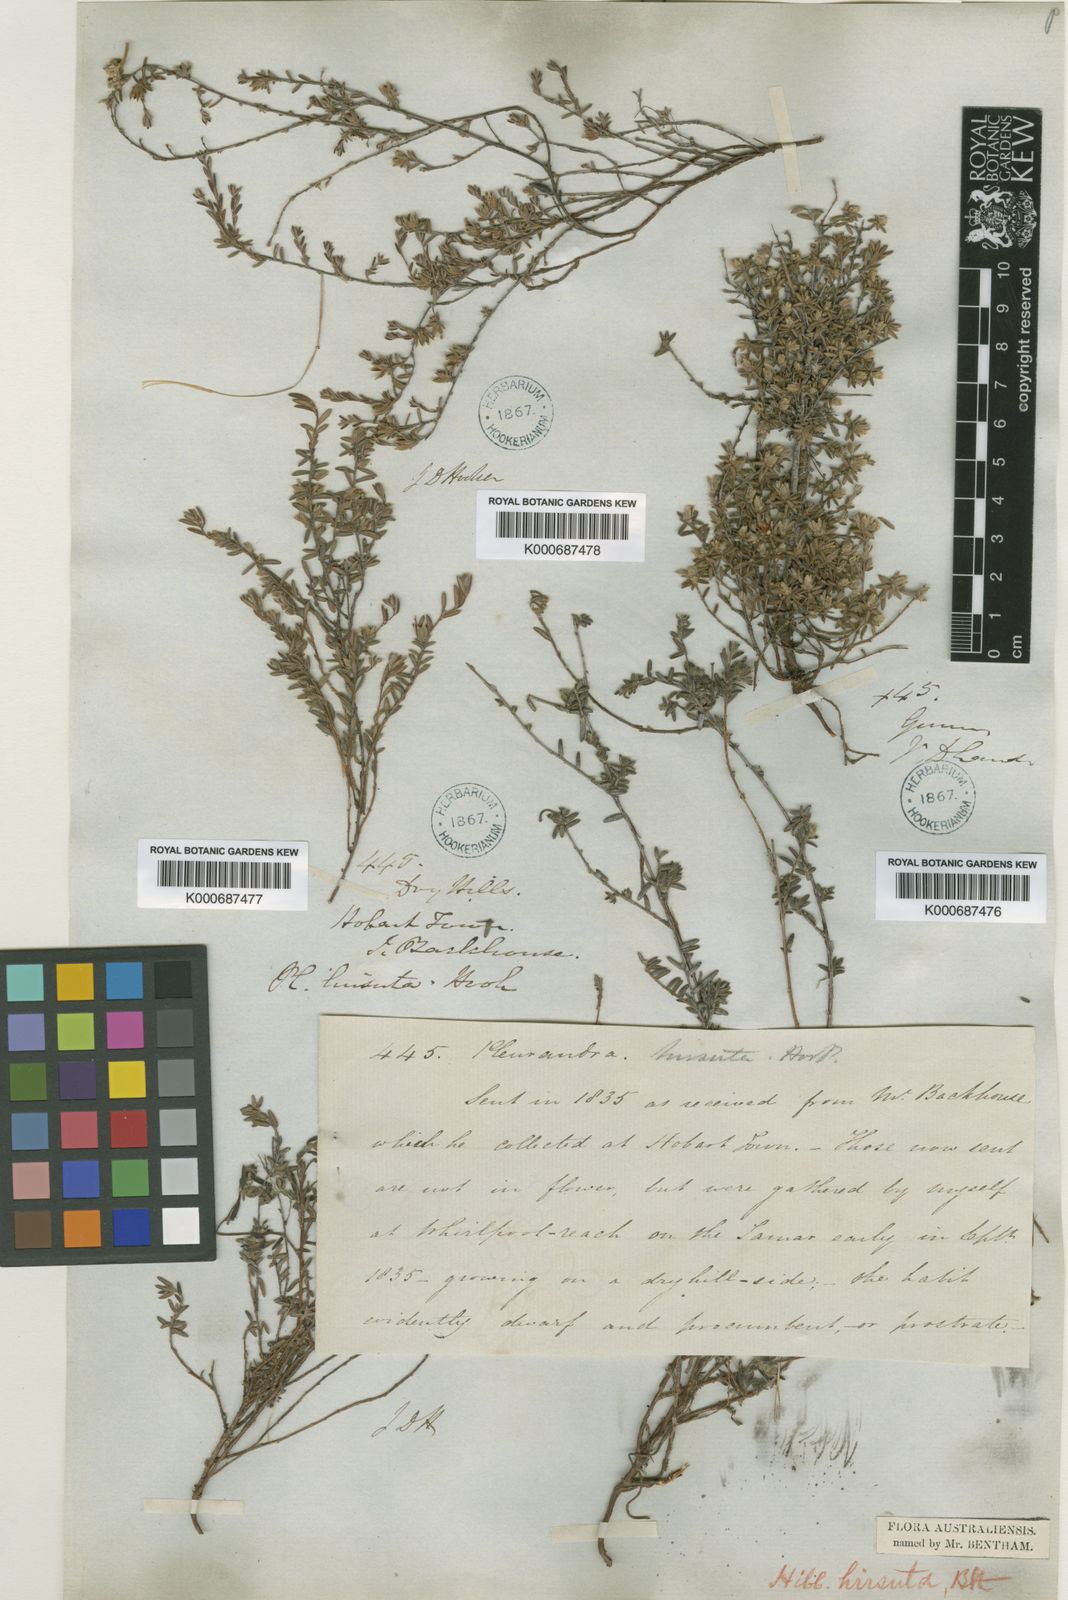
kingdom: Plantae
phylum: Tracheophyta
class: Magnoliopsida
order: Dilleniales
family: Dilleniaceae
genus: Hibbertia
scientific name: Hibbertia hirsuta
